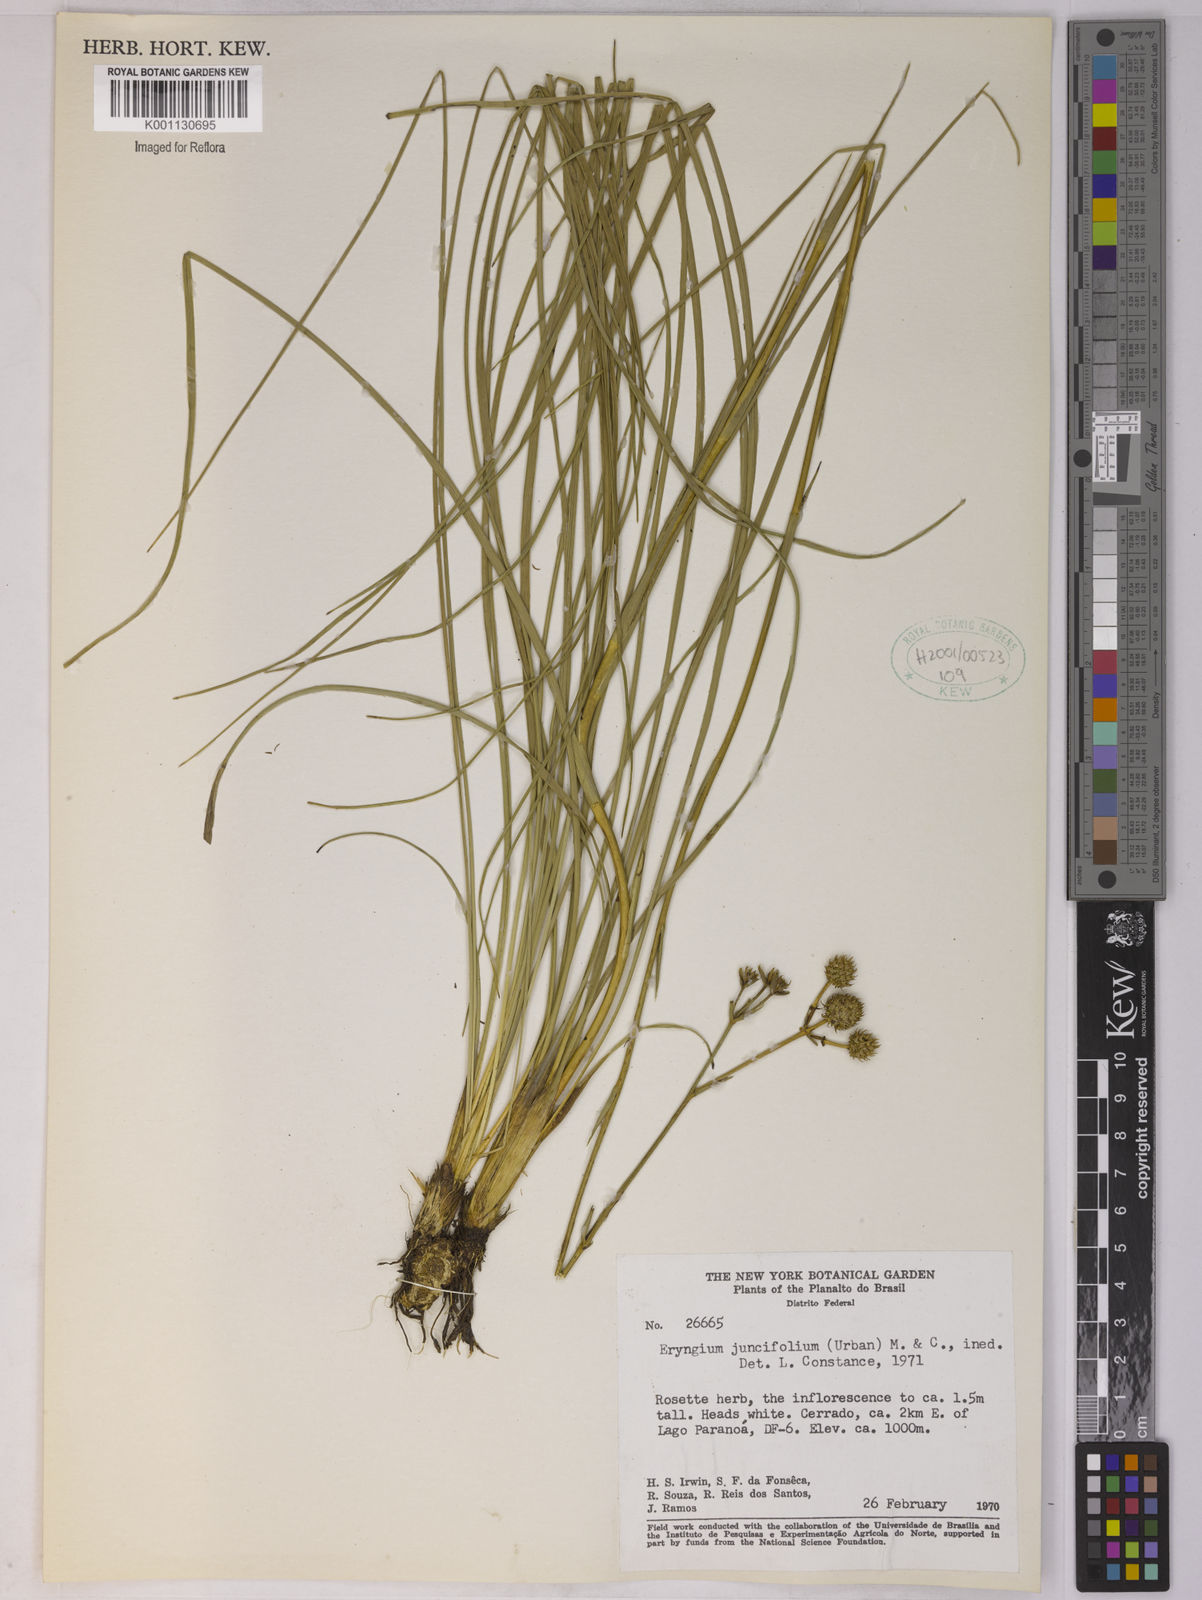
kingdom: Plantae
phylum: Tracheophyta
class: Magnoliopsida
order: Apiales
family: Apiaceae
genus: Eryngium
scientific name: Eryngium juncifolium
